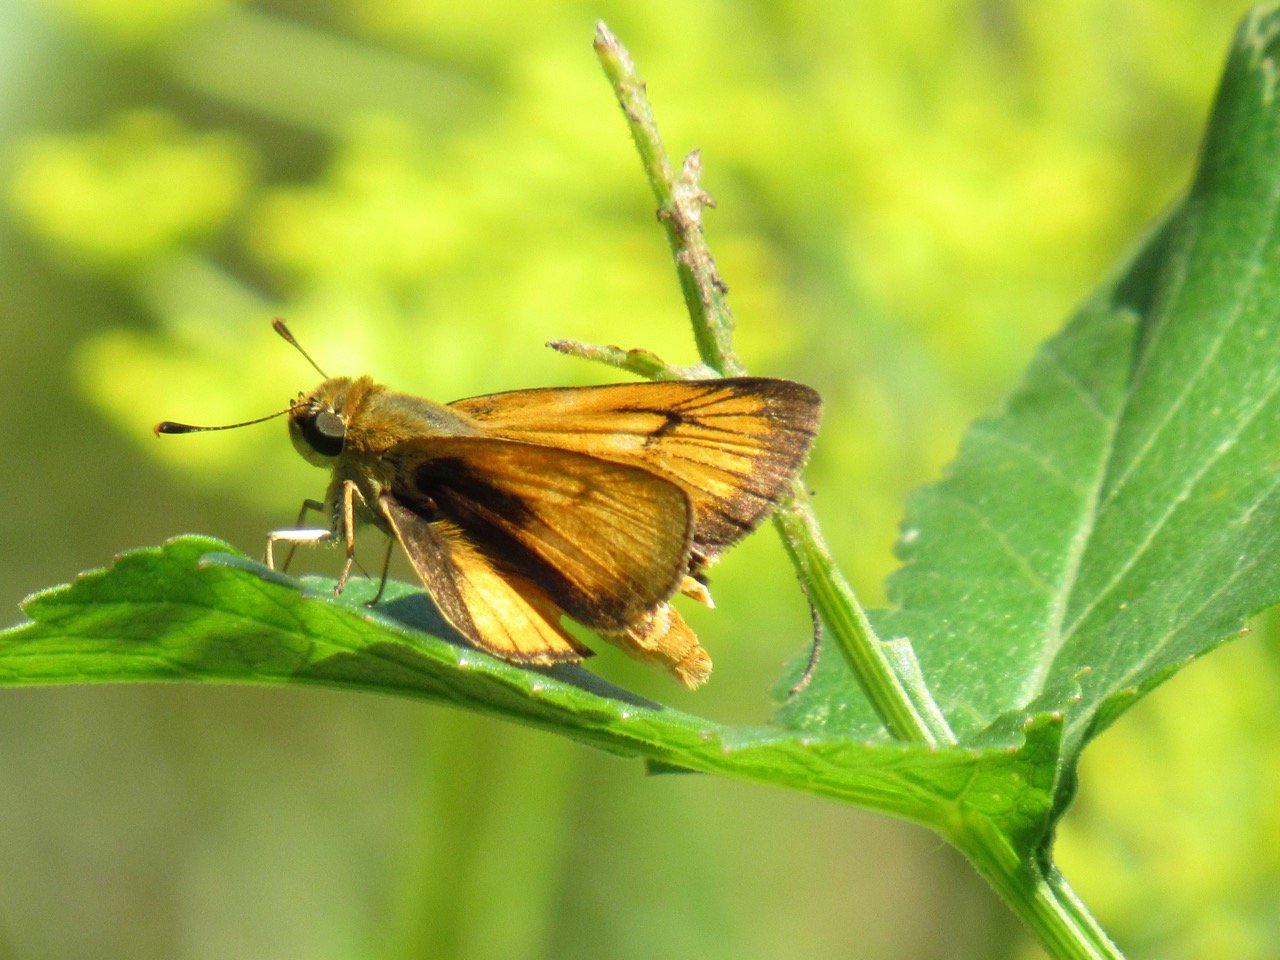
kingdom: Animalia
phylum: Arthropoda
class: Insecta
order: Lepidoptera
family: Hesperiidae
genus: Atrytone
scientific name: Atrytone delaware
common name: Delaware Skipper
